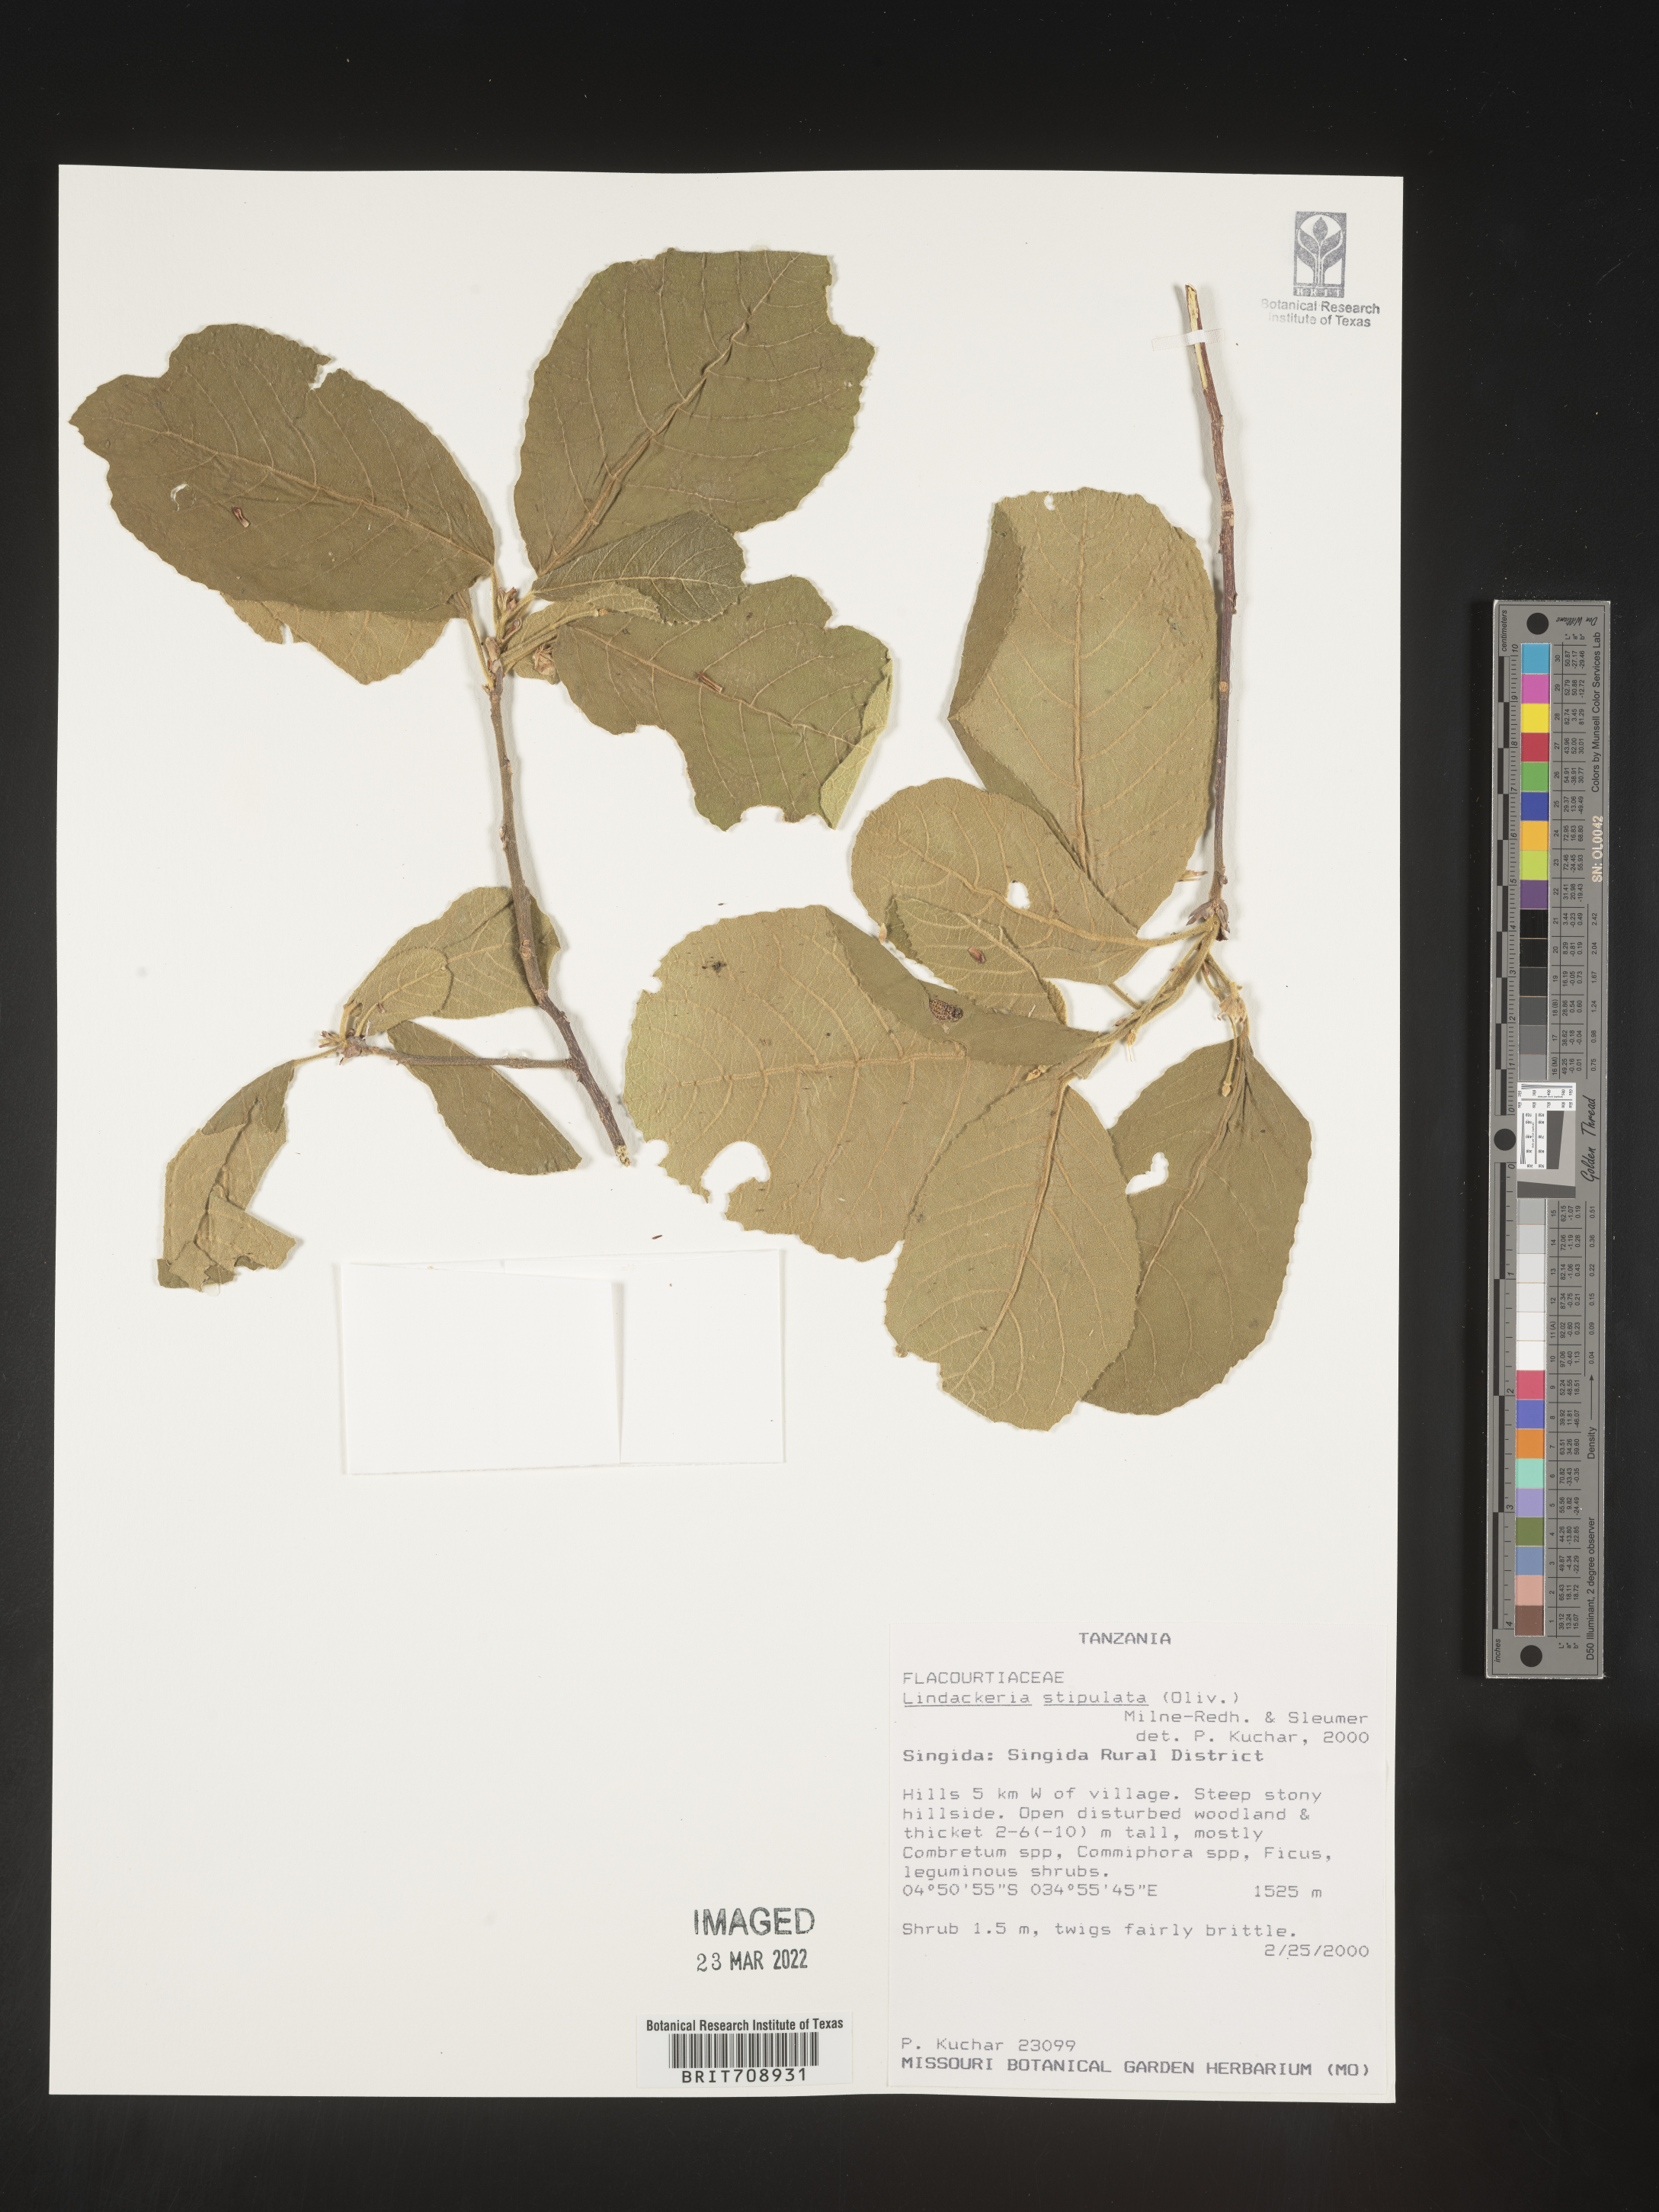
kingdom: Plantae
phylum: Tracheophyta
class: Magnoliopsida
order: Malpighiales
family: Achariaceae
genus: Lindackeria
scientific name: Lindackeria
